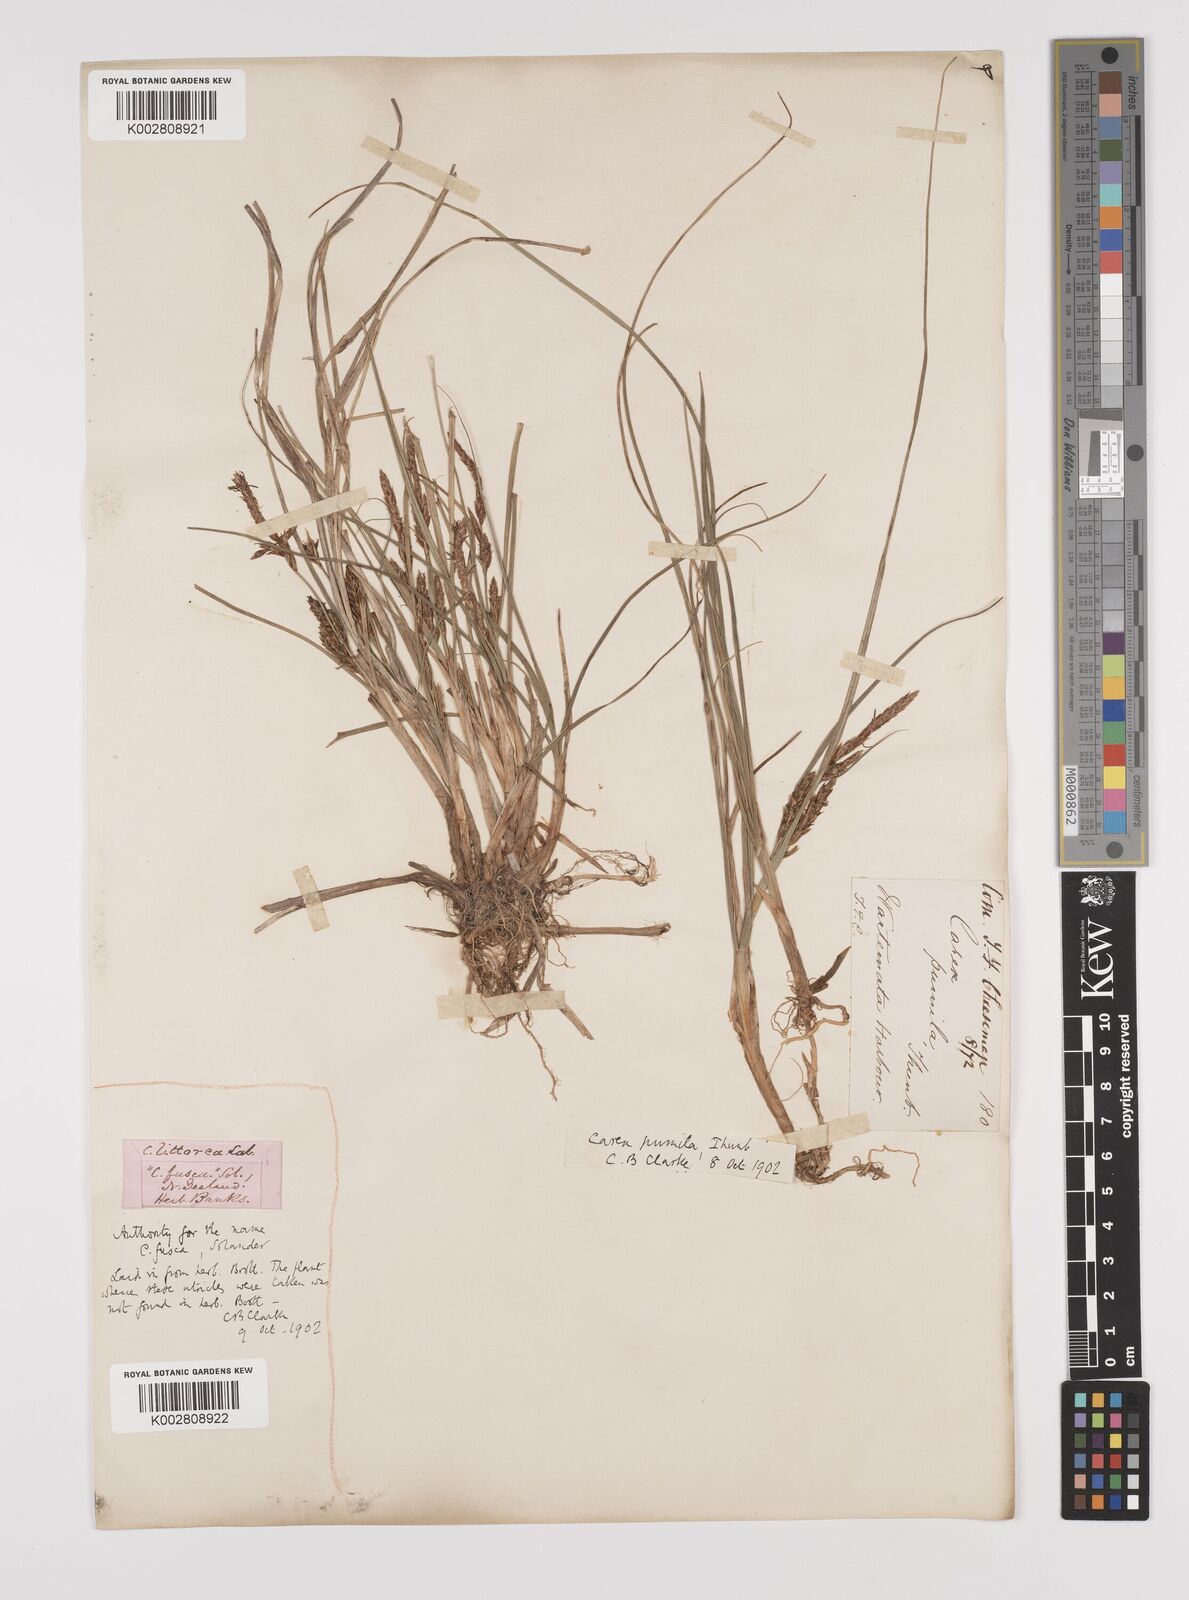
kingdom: Plantae
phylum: Tracheophyta
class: Liliopsida
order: Poales
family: Cyperaceae
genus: Carex
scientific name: Carex pumila
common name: Dwarf sedge
